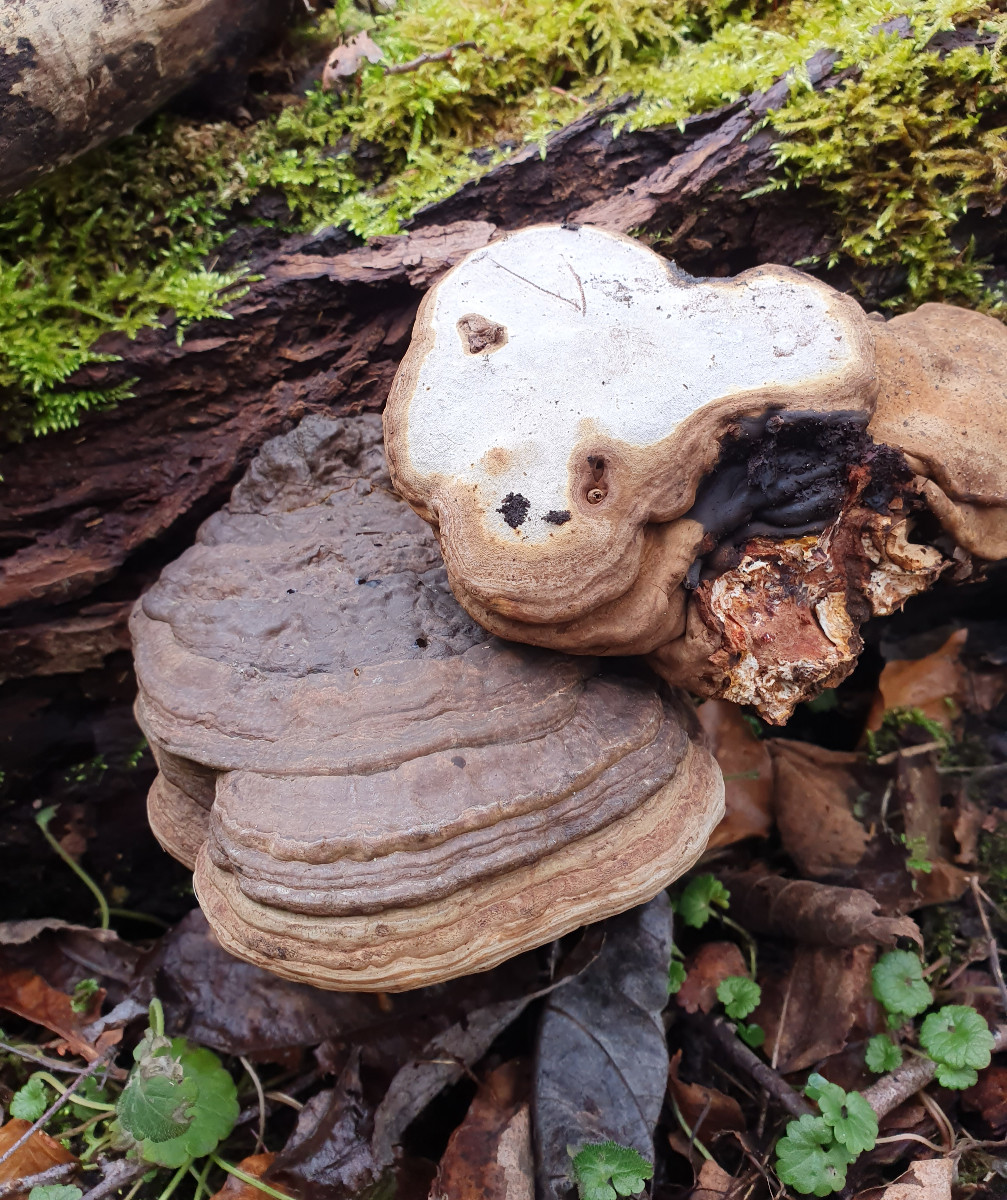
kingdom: Fungi
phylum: Basidiomycota
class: Agaricomycetes
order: Polyporales
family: Polyporaceae
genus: Ganoderma
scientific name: Ganoderma applanatum
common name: flad lakporesvamp
